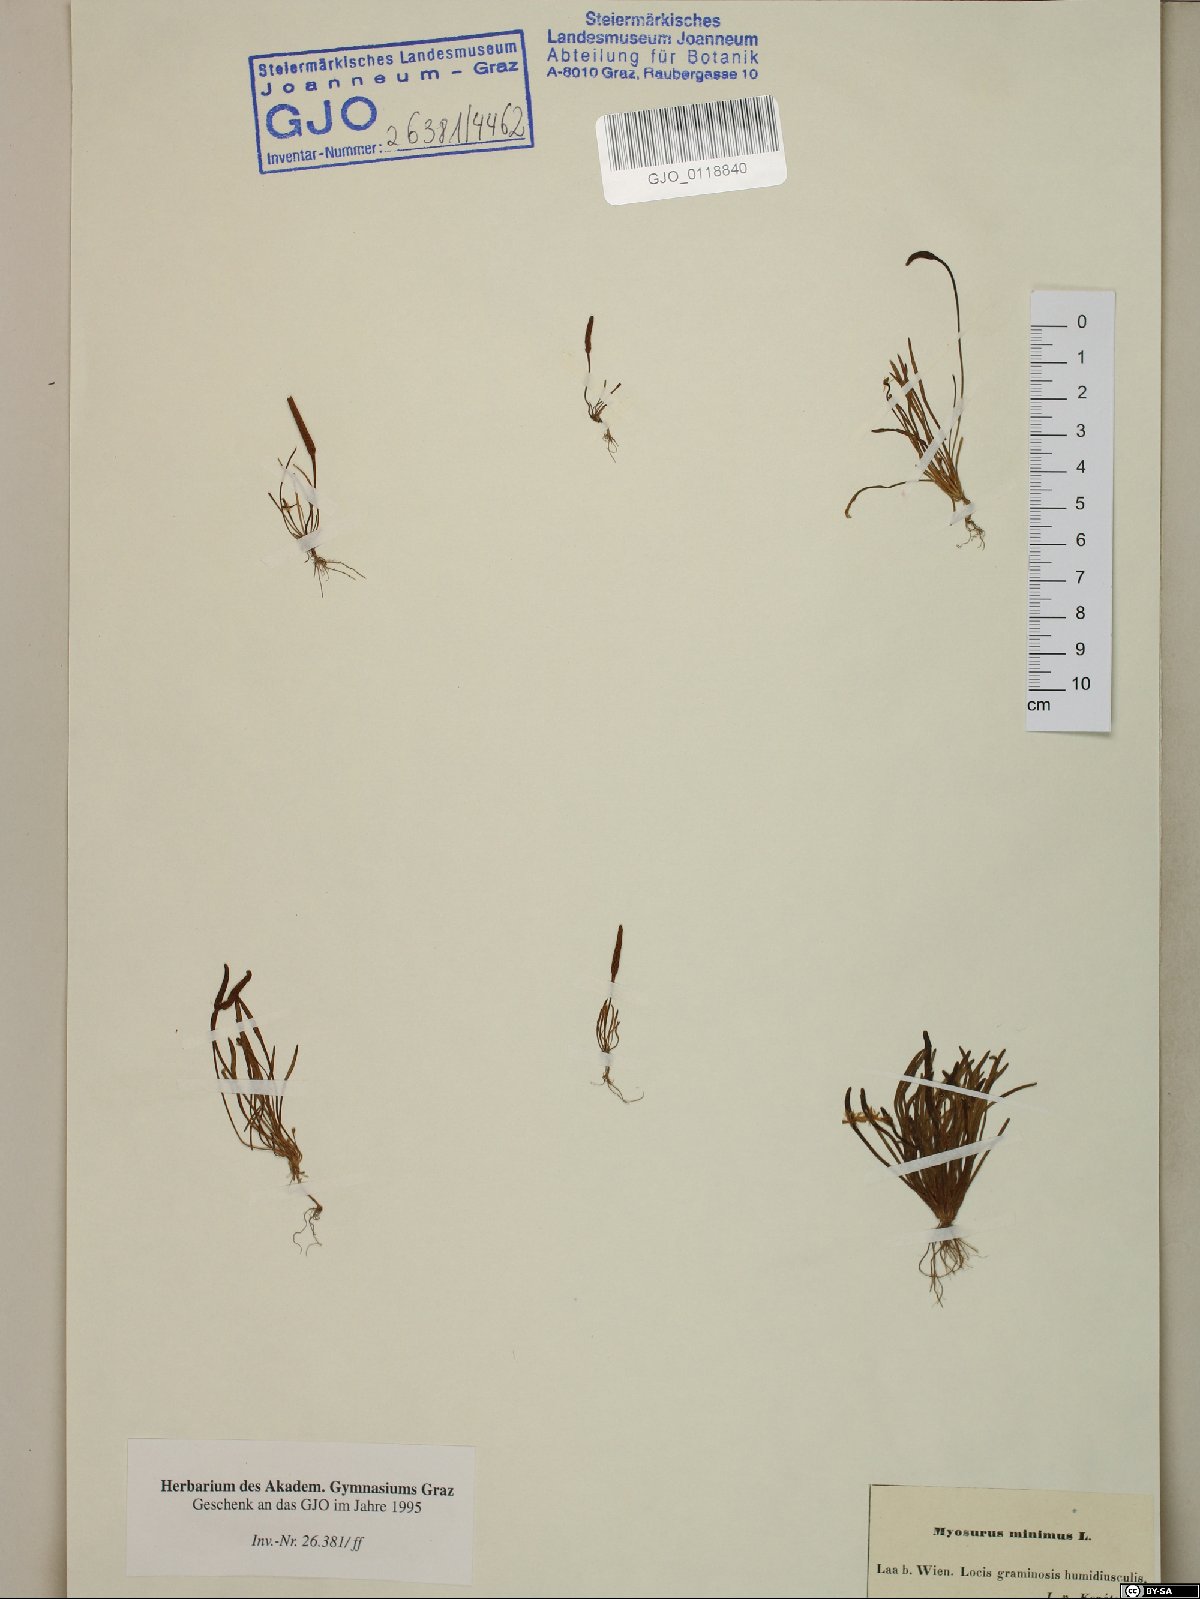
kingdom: Plantae
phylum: Tracheophyta
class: Magnoliopsida
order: Ranunculales
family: Ranunculaceae
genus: Myosurus
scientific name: Myosurus minimus
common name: Mousetail
